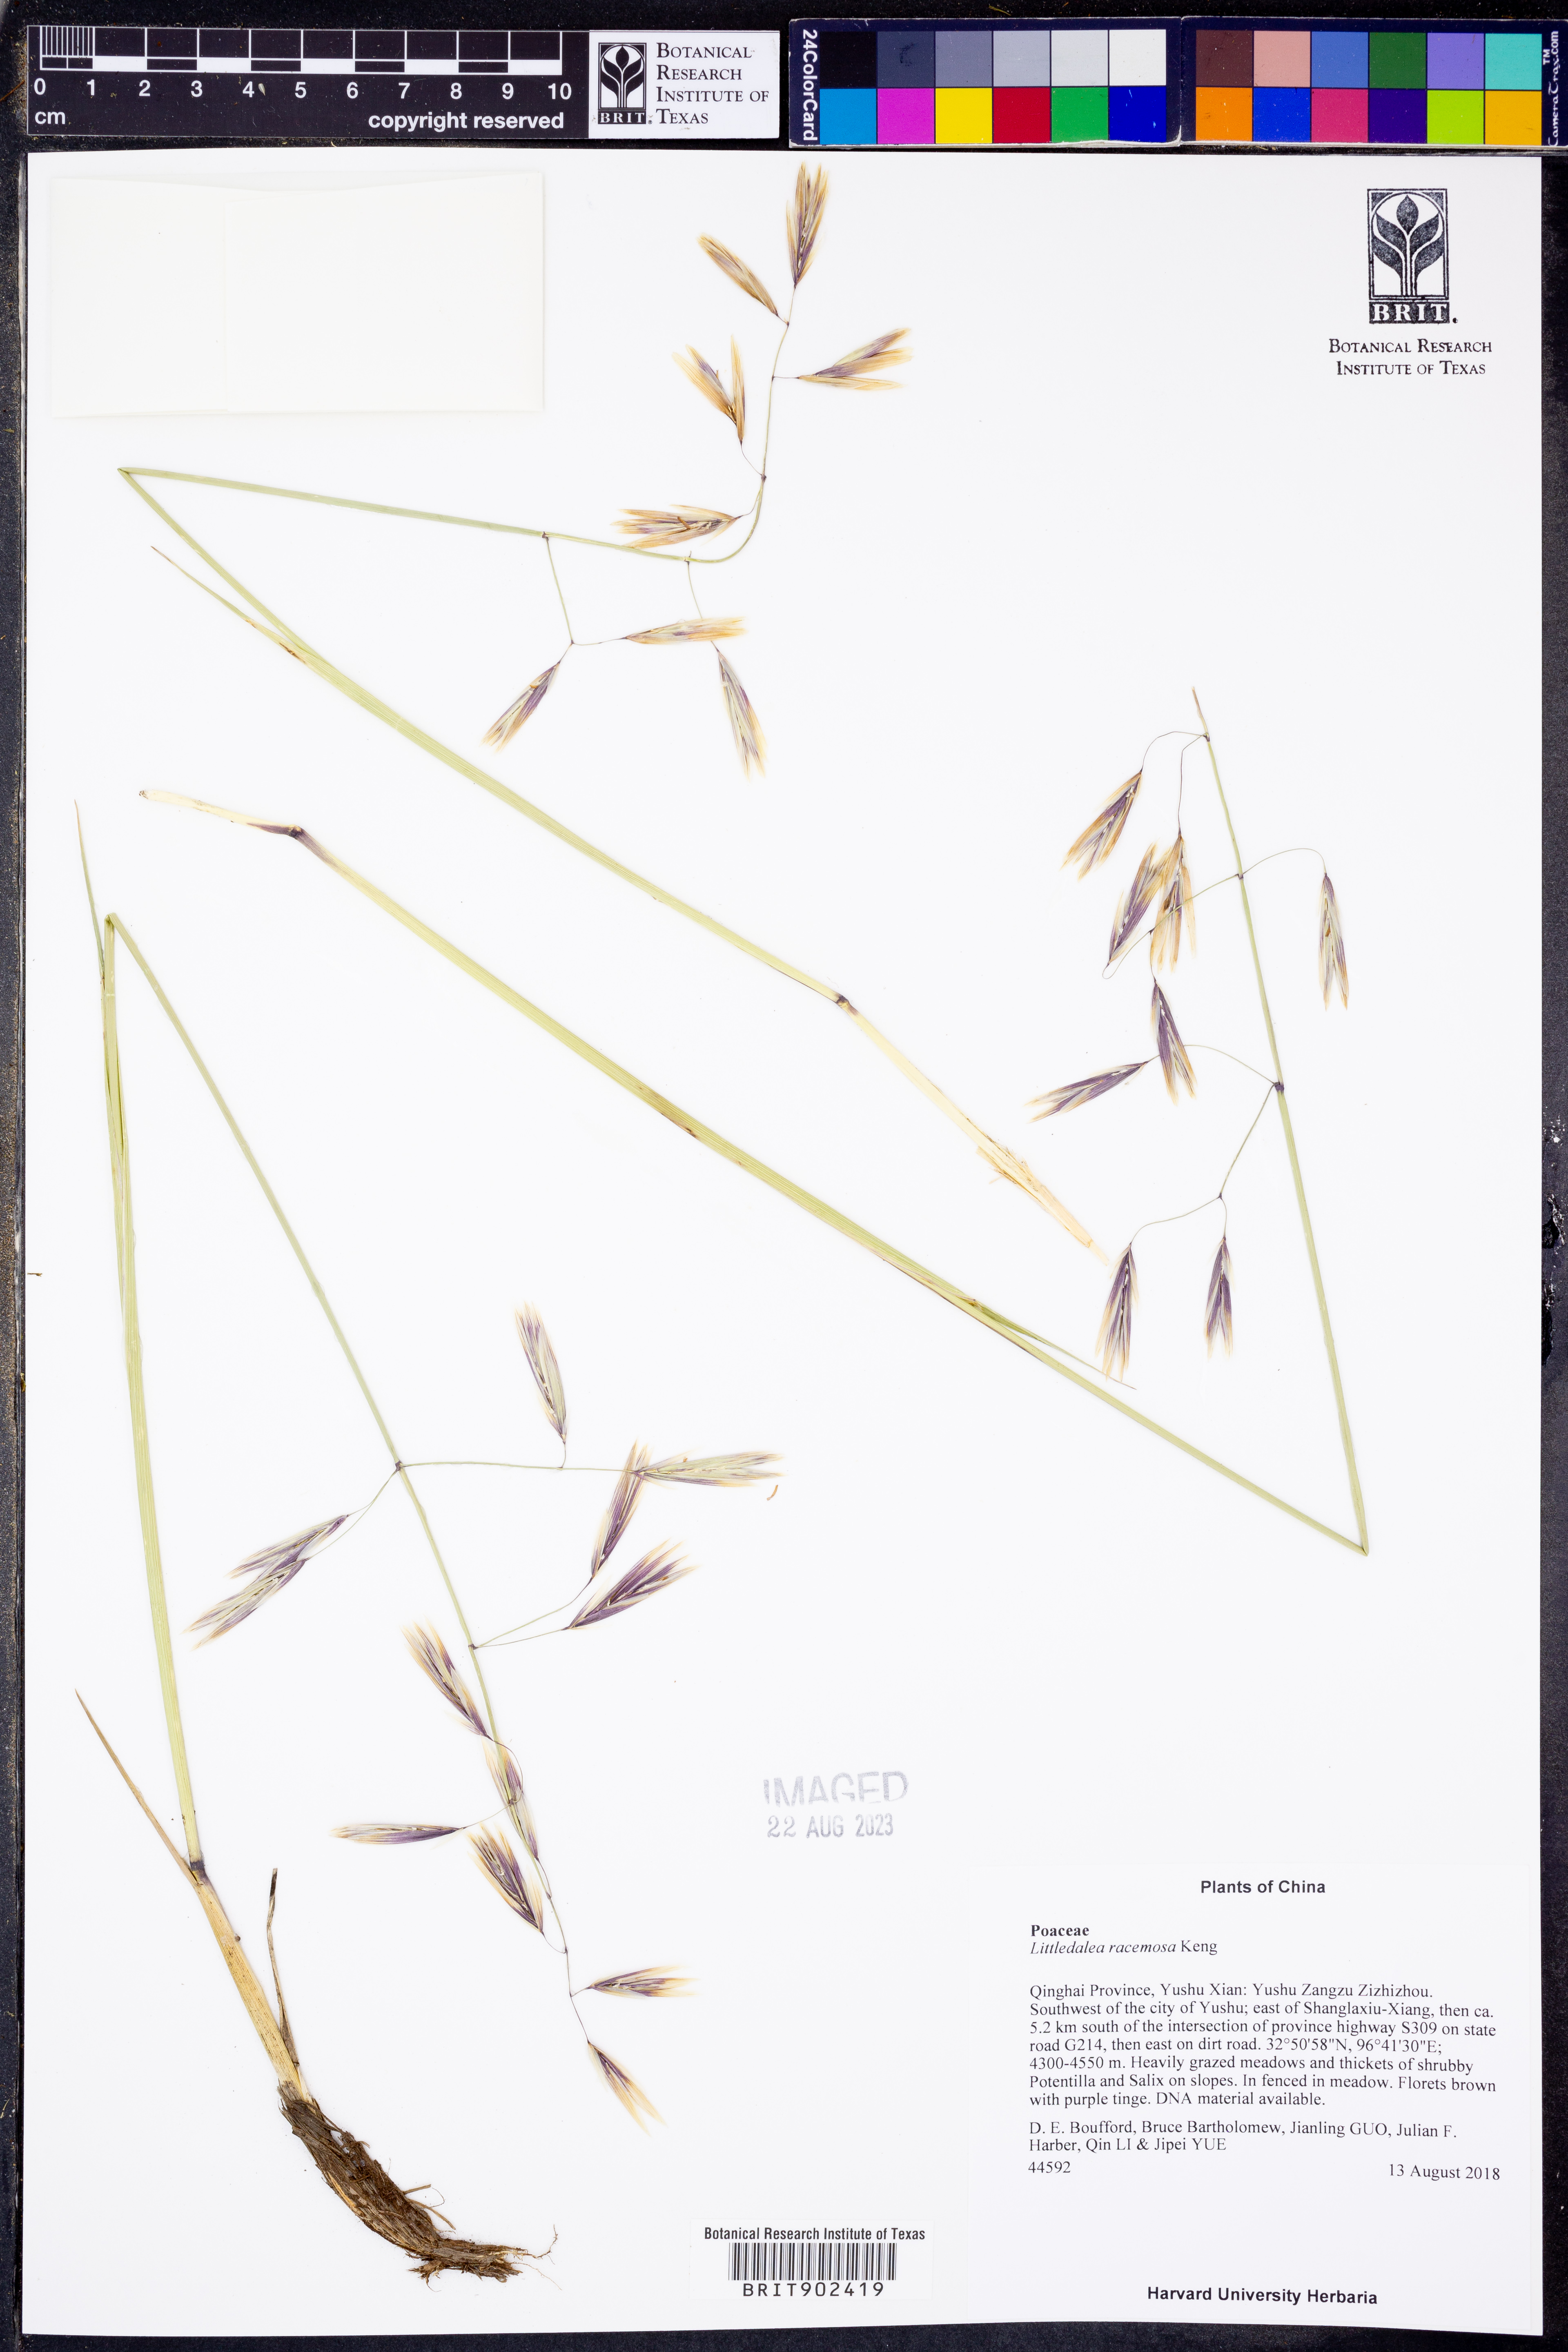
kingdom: Plantae
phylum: Tracheophyta
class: Liliopsida
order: Poales
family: Poaceae
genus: Littledalea
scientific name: Littledalea
